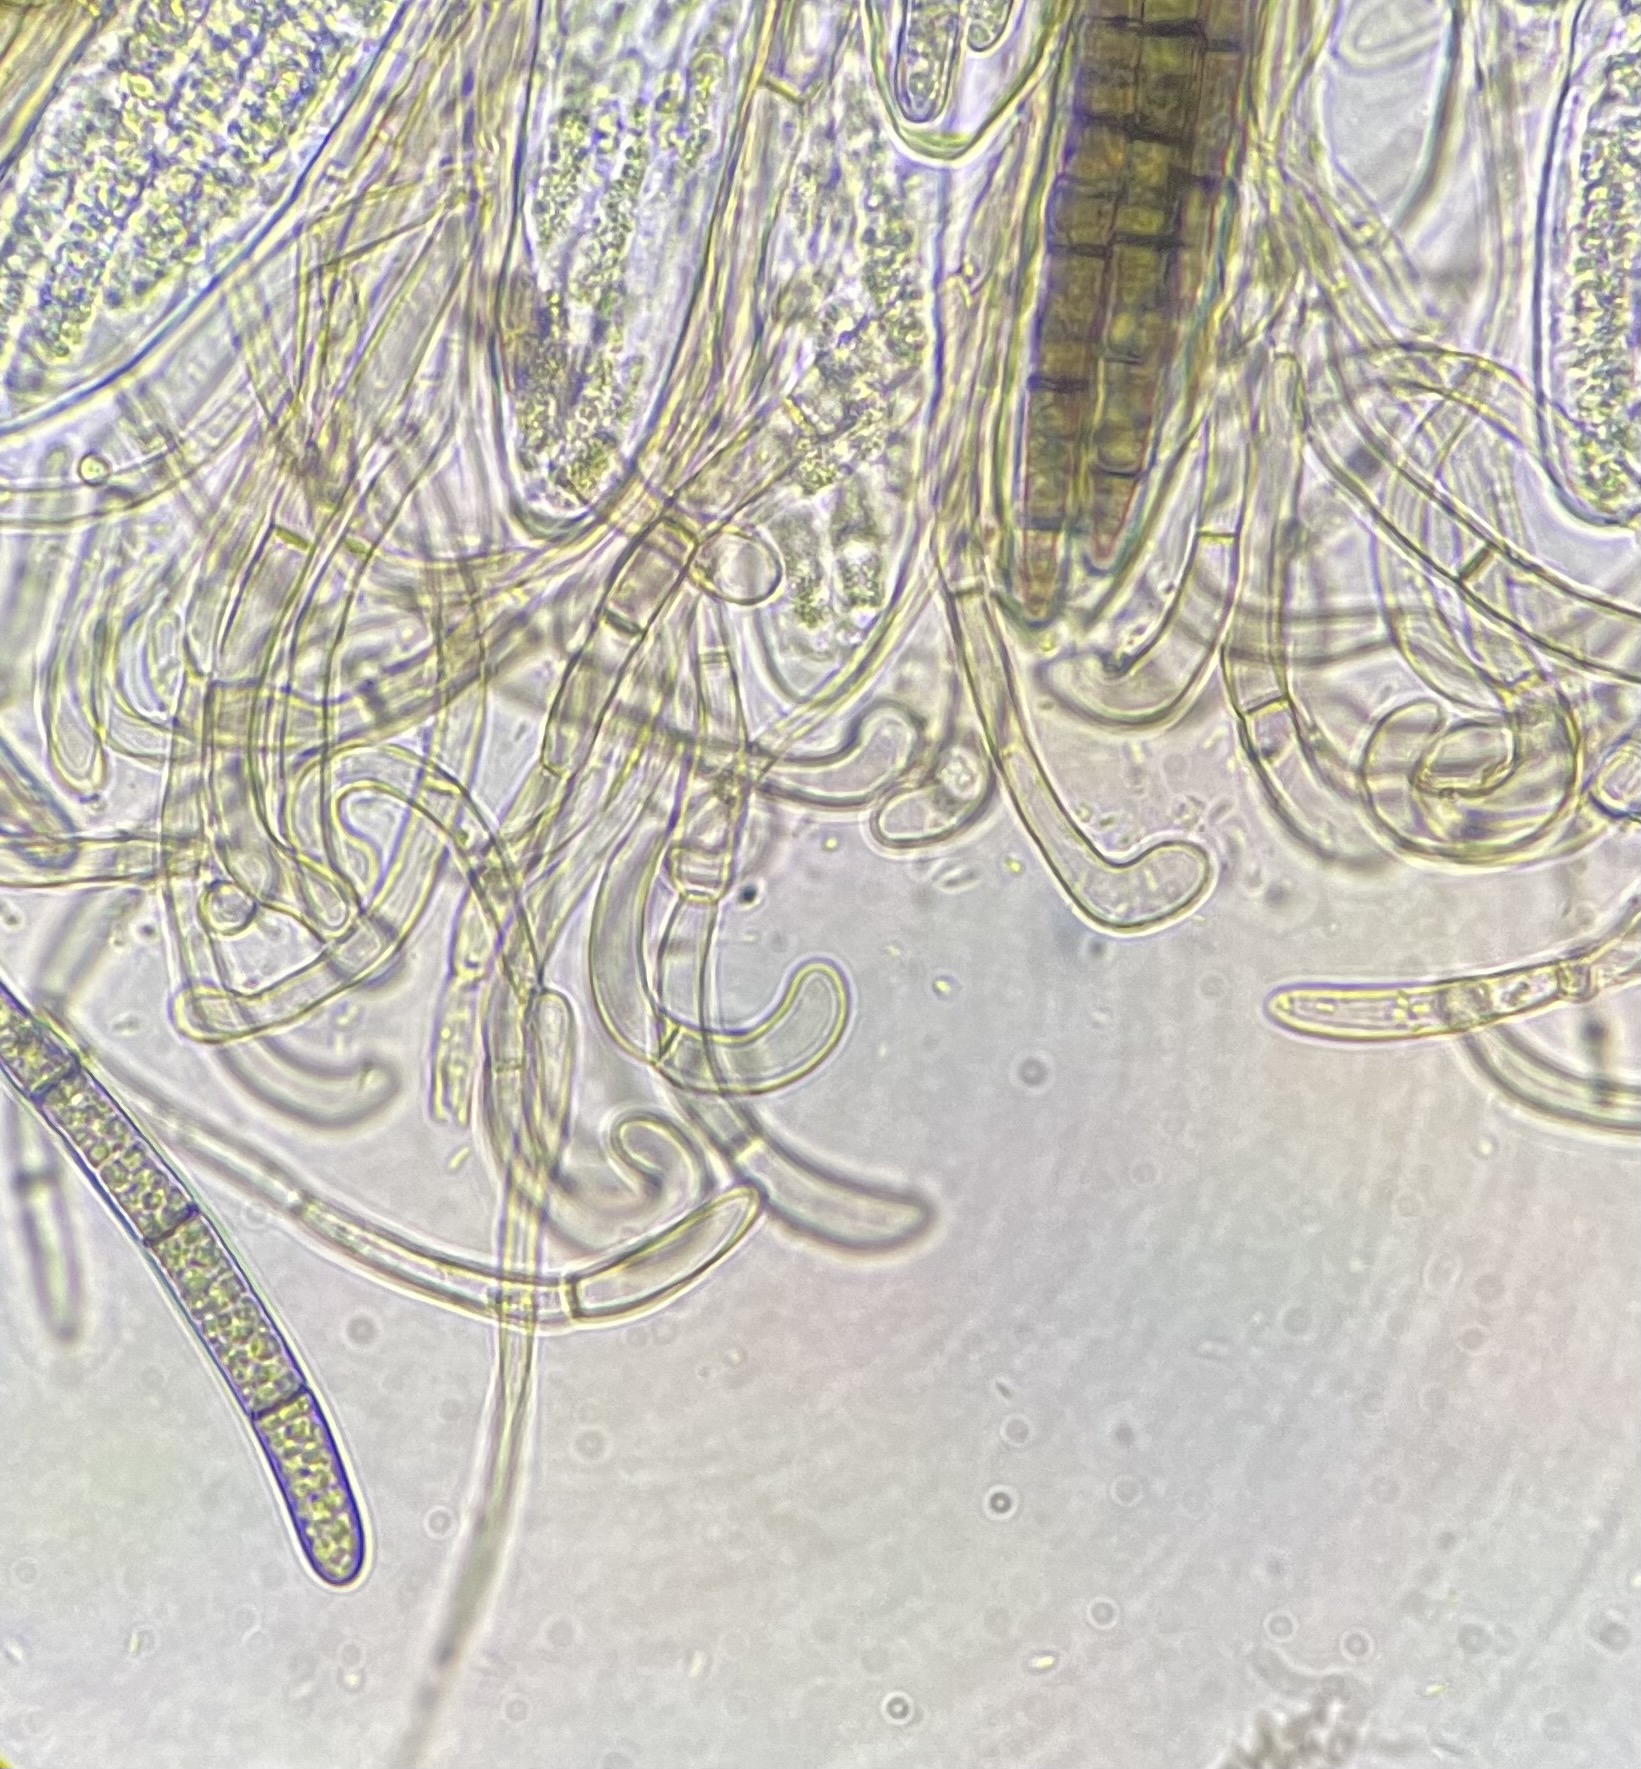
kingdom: Fungi
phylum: Ascomycota
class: Geoglossomycetes
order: Geoglossales
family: Geoglossaceae
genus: Geoglossum
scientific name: Geoglossum umbratile
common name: slank jordtunge
